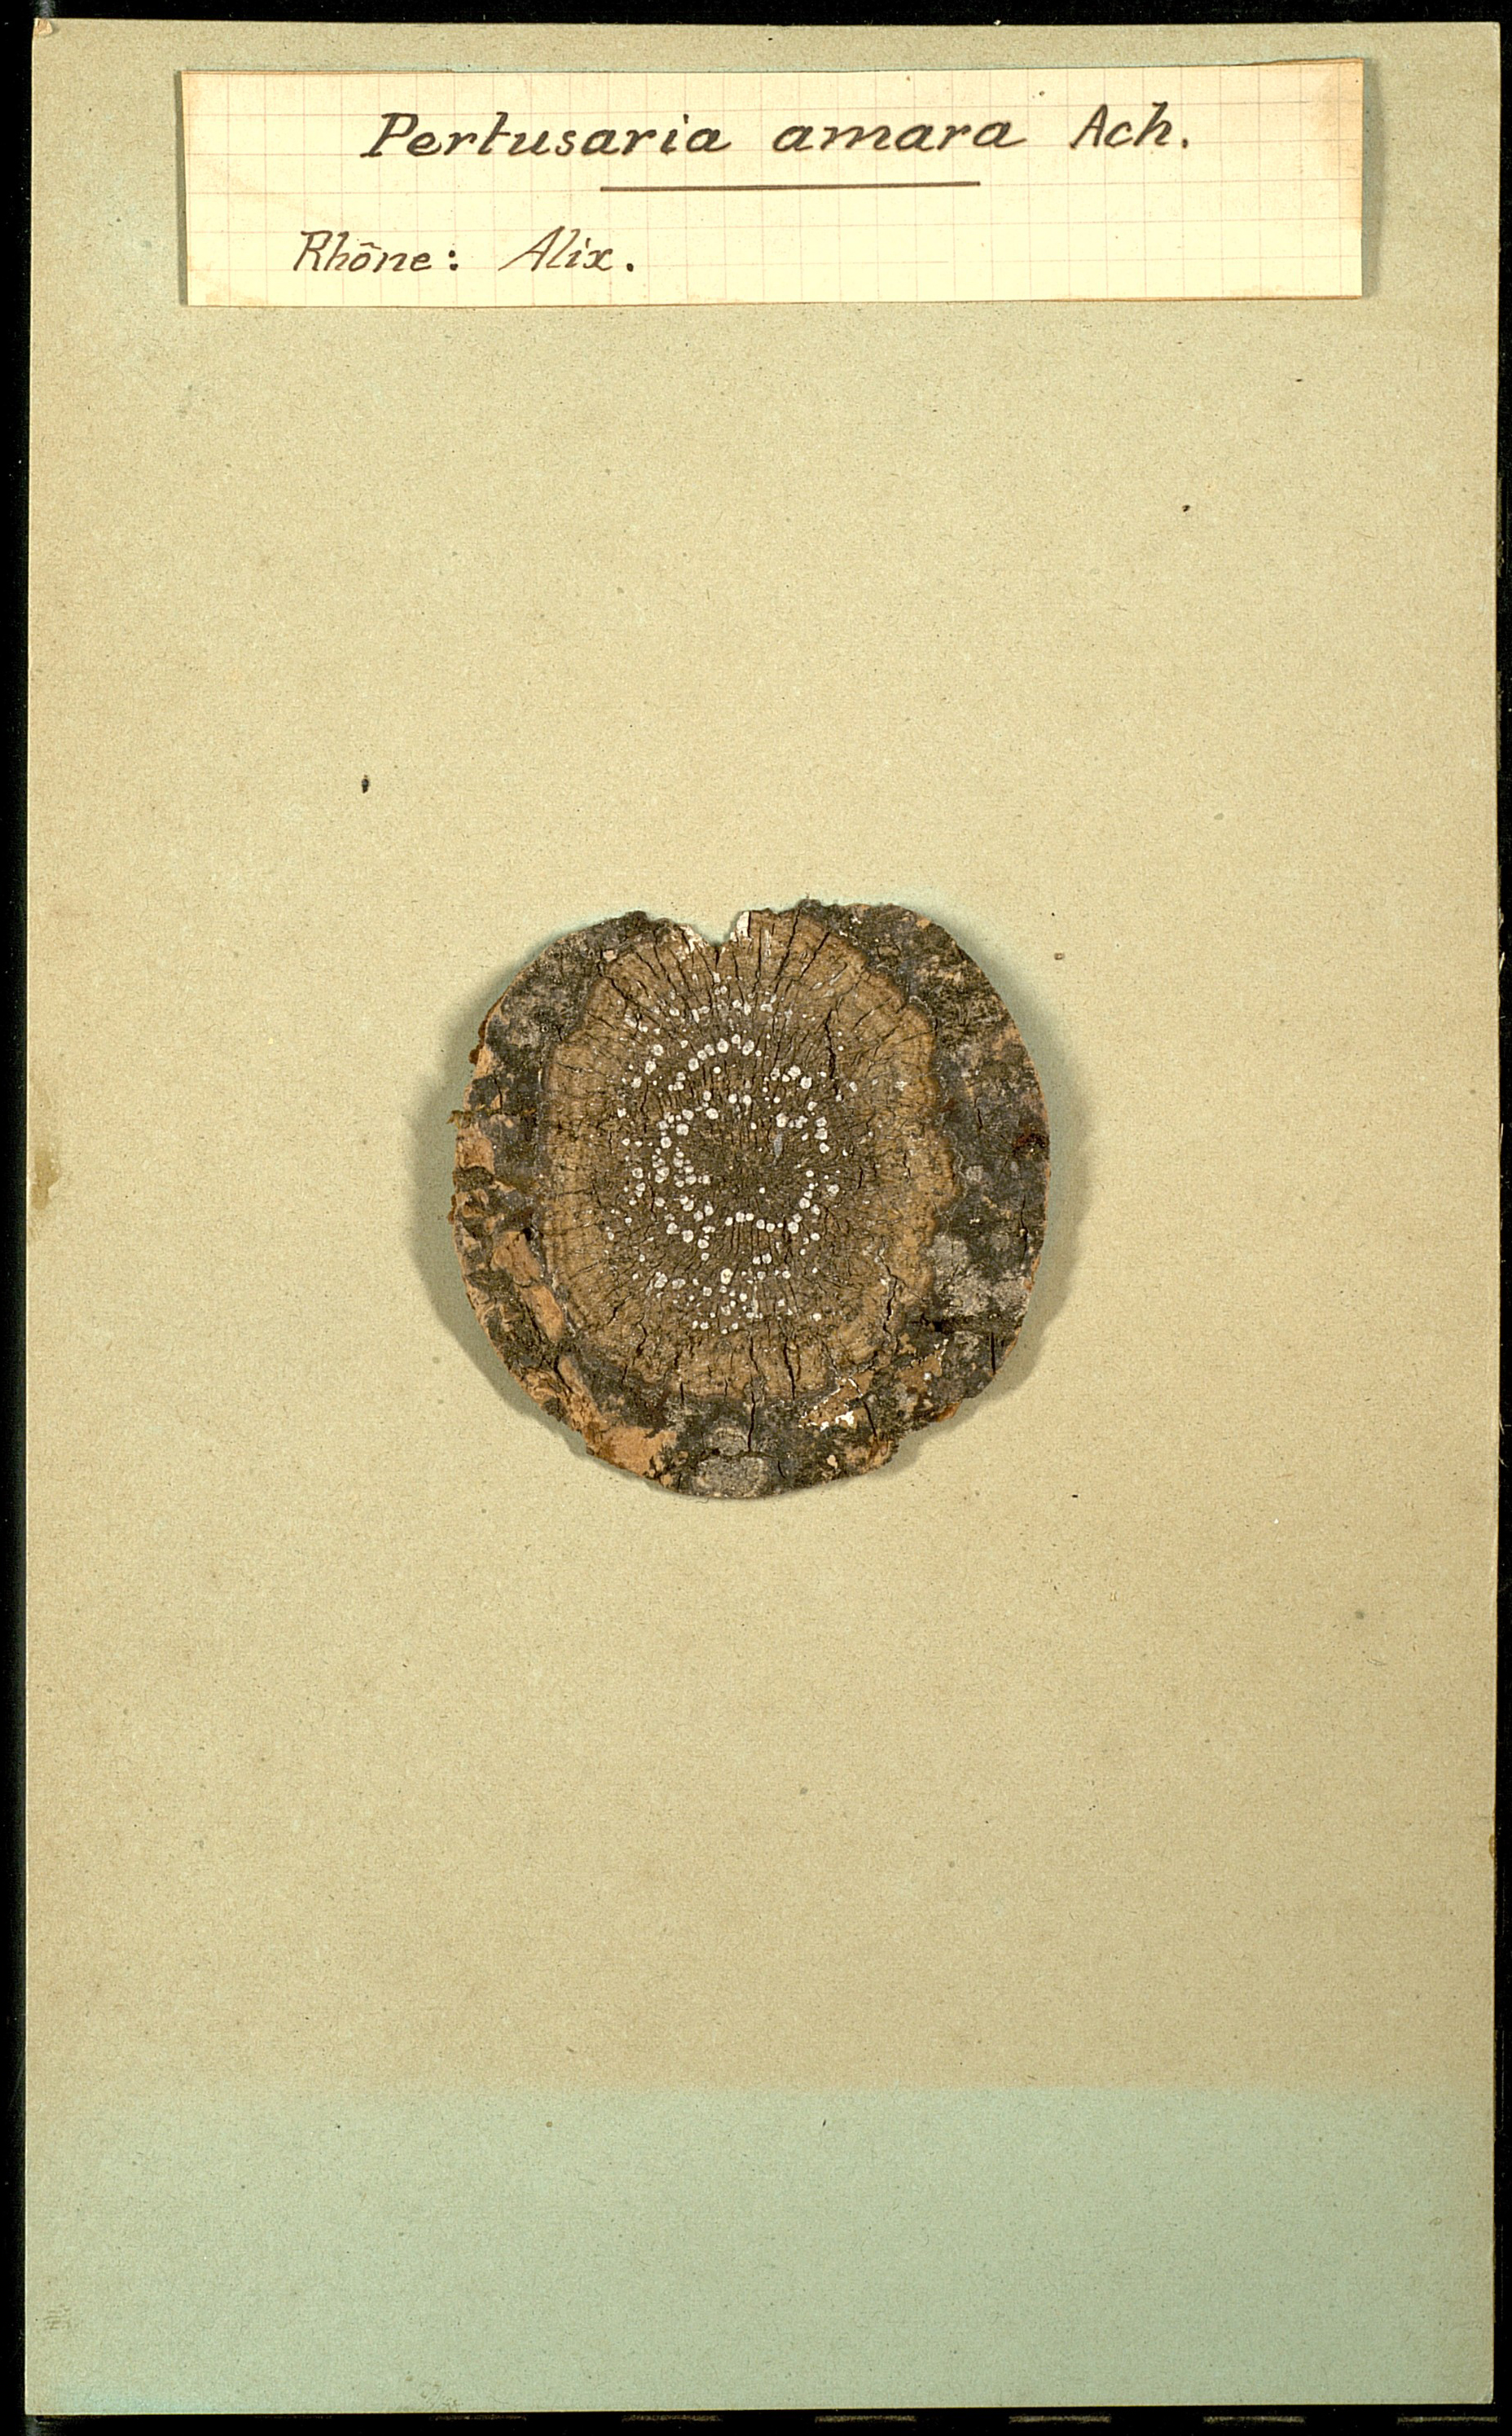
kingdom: Fungi
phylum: Ascomycota
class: Lecanoromycetes
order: Pertusariales
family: Pertusariaceae
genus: Lepra
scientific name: Lepra amara
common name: Bitter wart lichen
